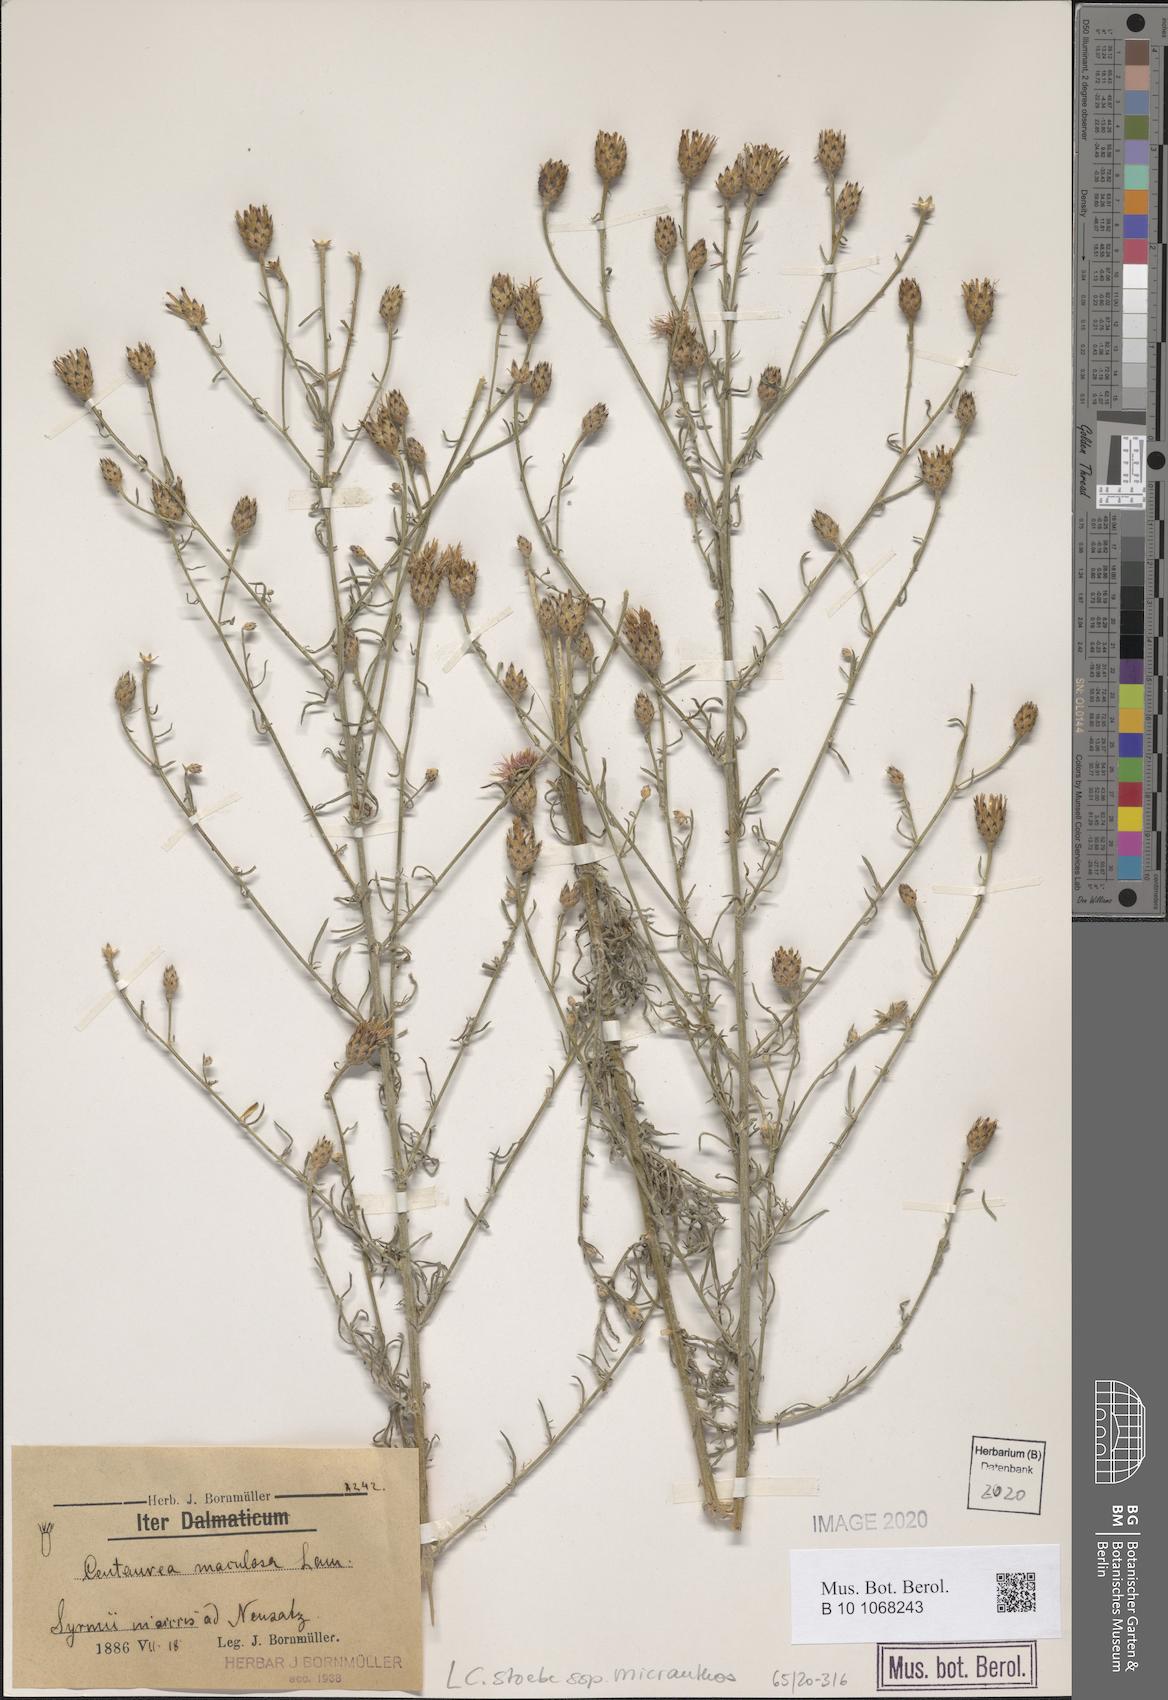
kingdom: Plantae
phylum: Tracheophyta
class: Magnoliopsida
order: Asterales
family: Asteraceae
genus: Centaurea
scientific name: Centaurea australis
